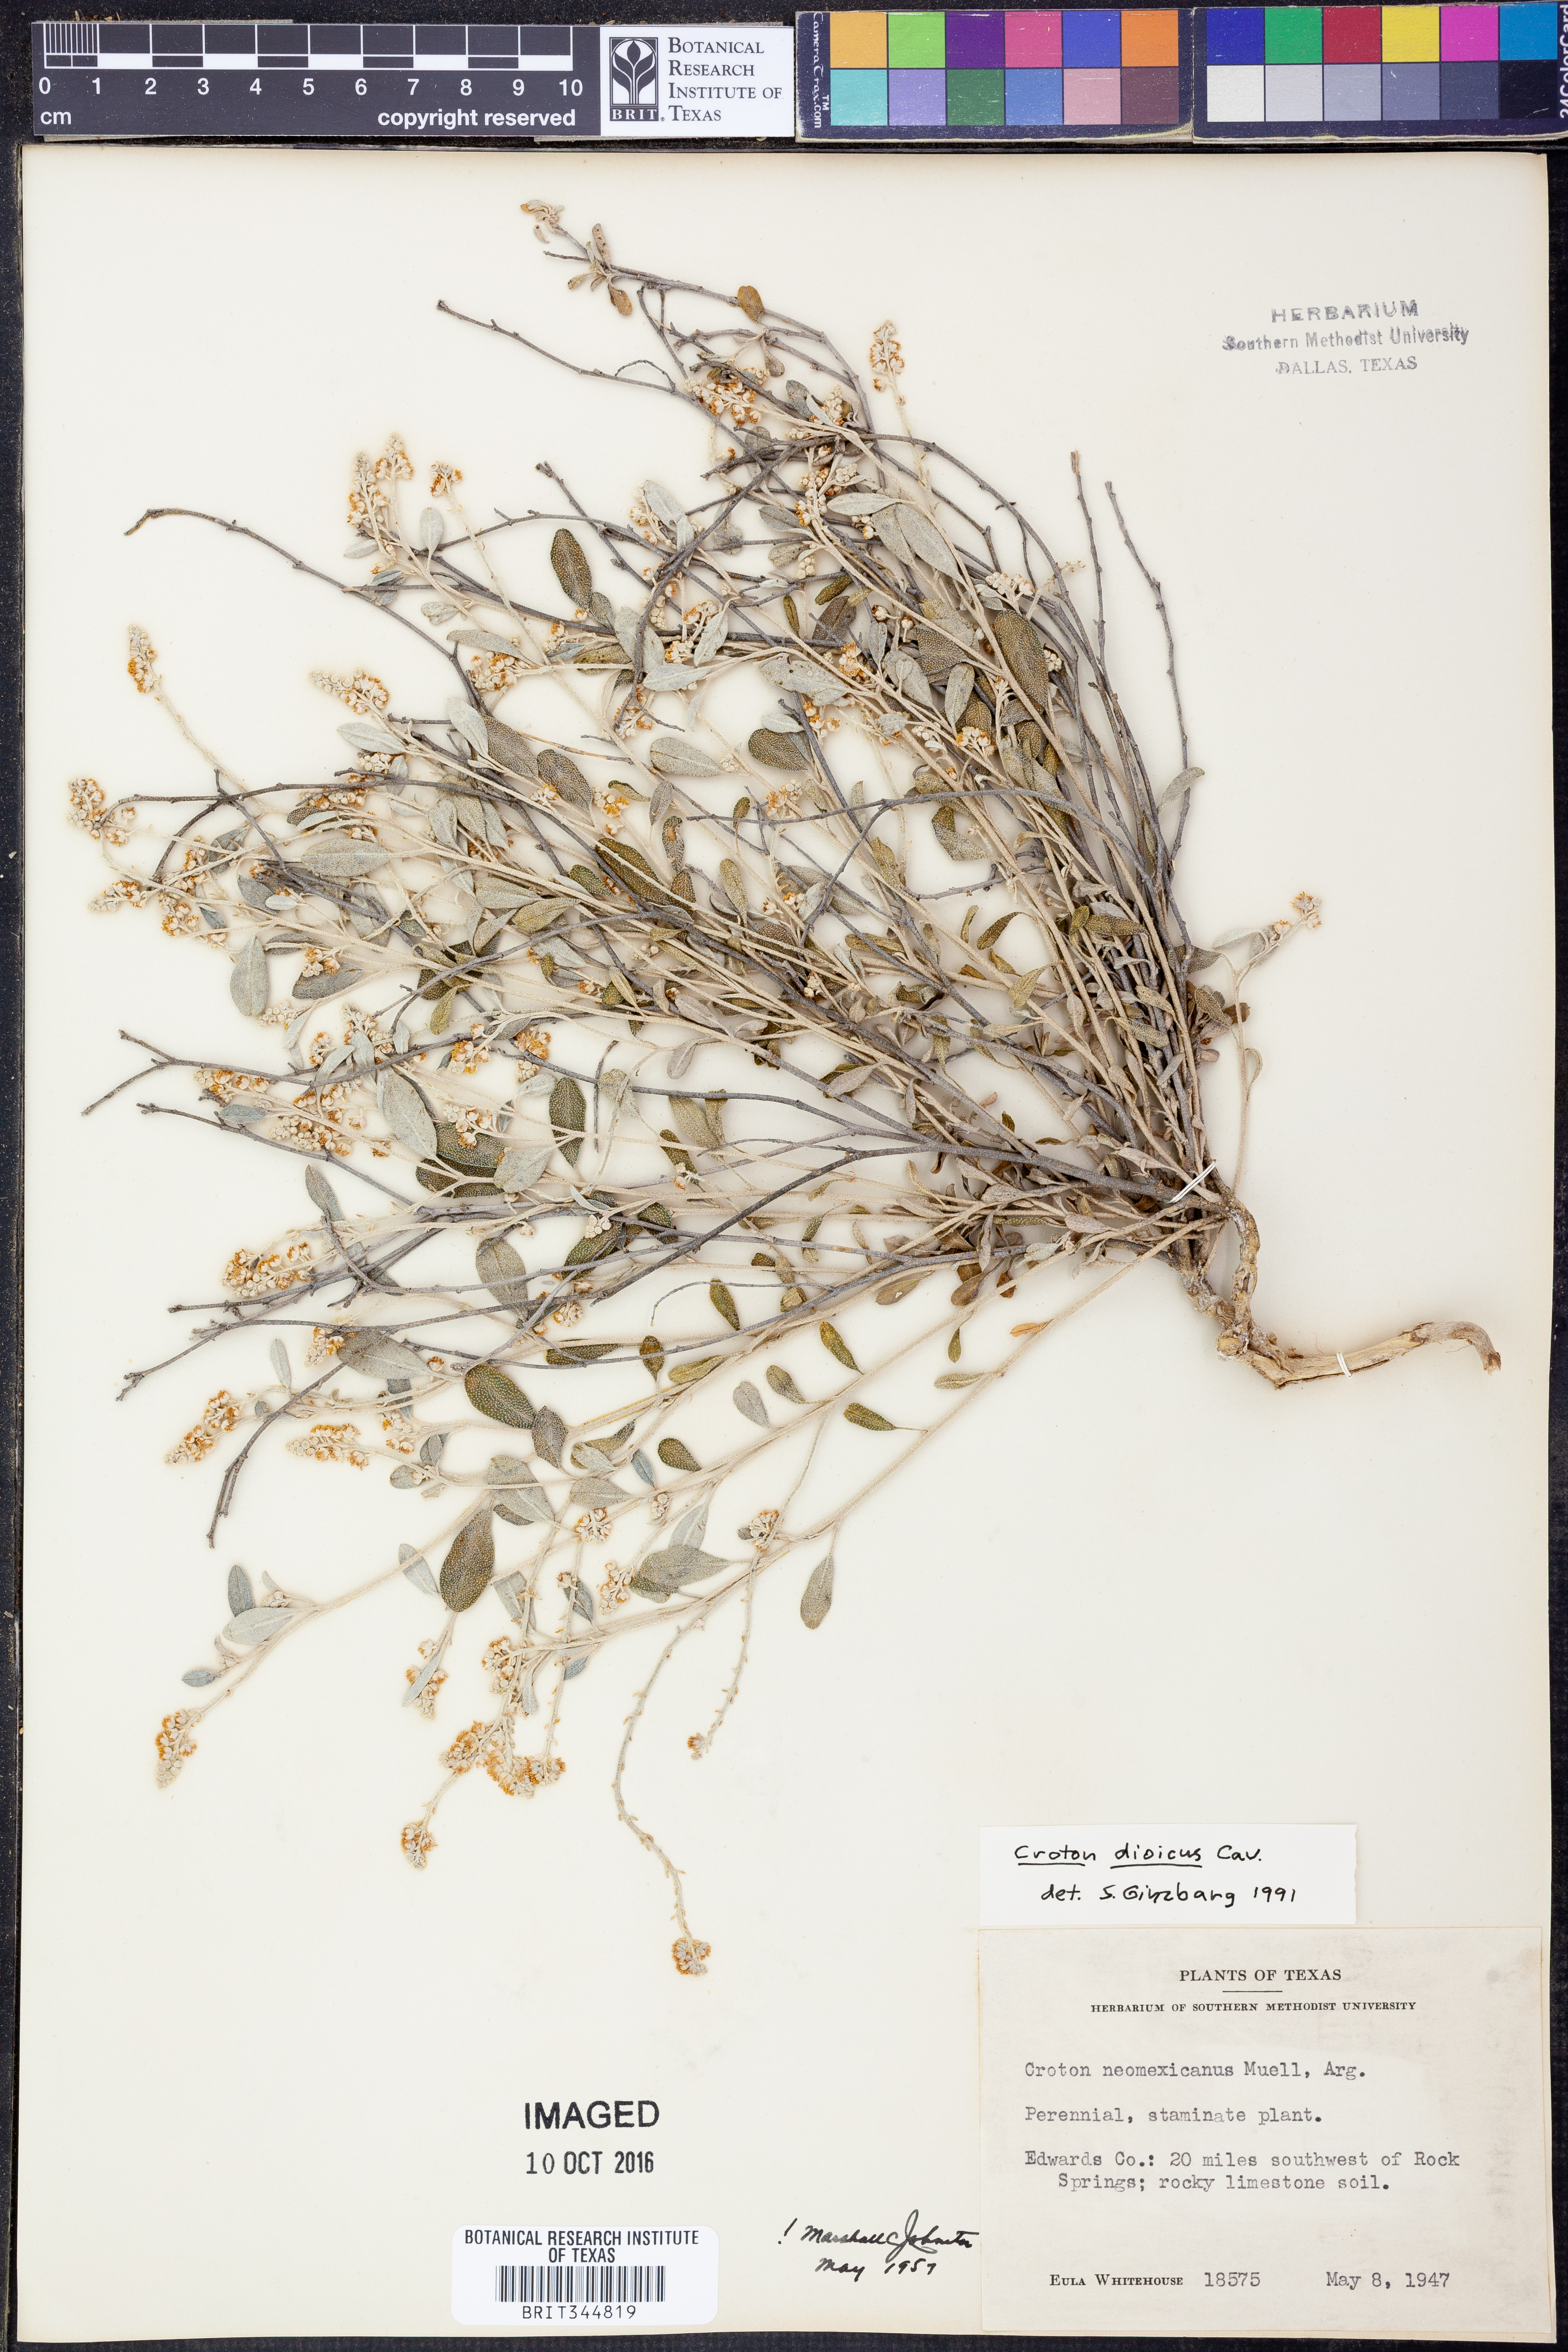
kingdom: Plantae
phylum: Tracheophyta
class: Magnoliopsida
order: Malpighiales
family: Euphorbiaceae
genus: Croton
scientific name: Croton dioicus
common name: Grassland croton
